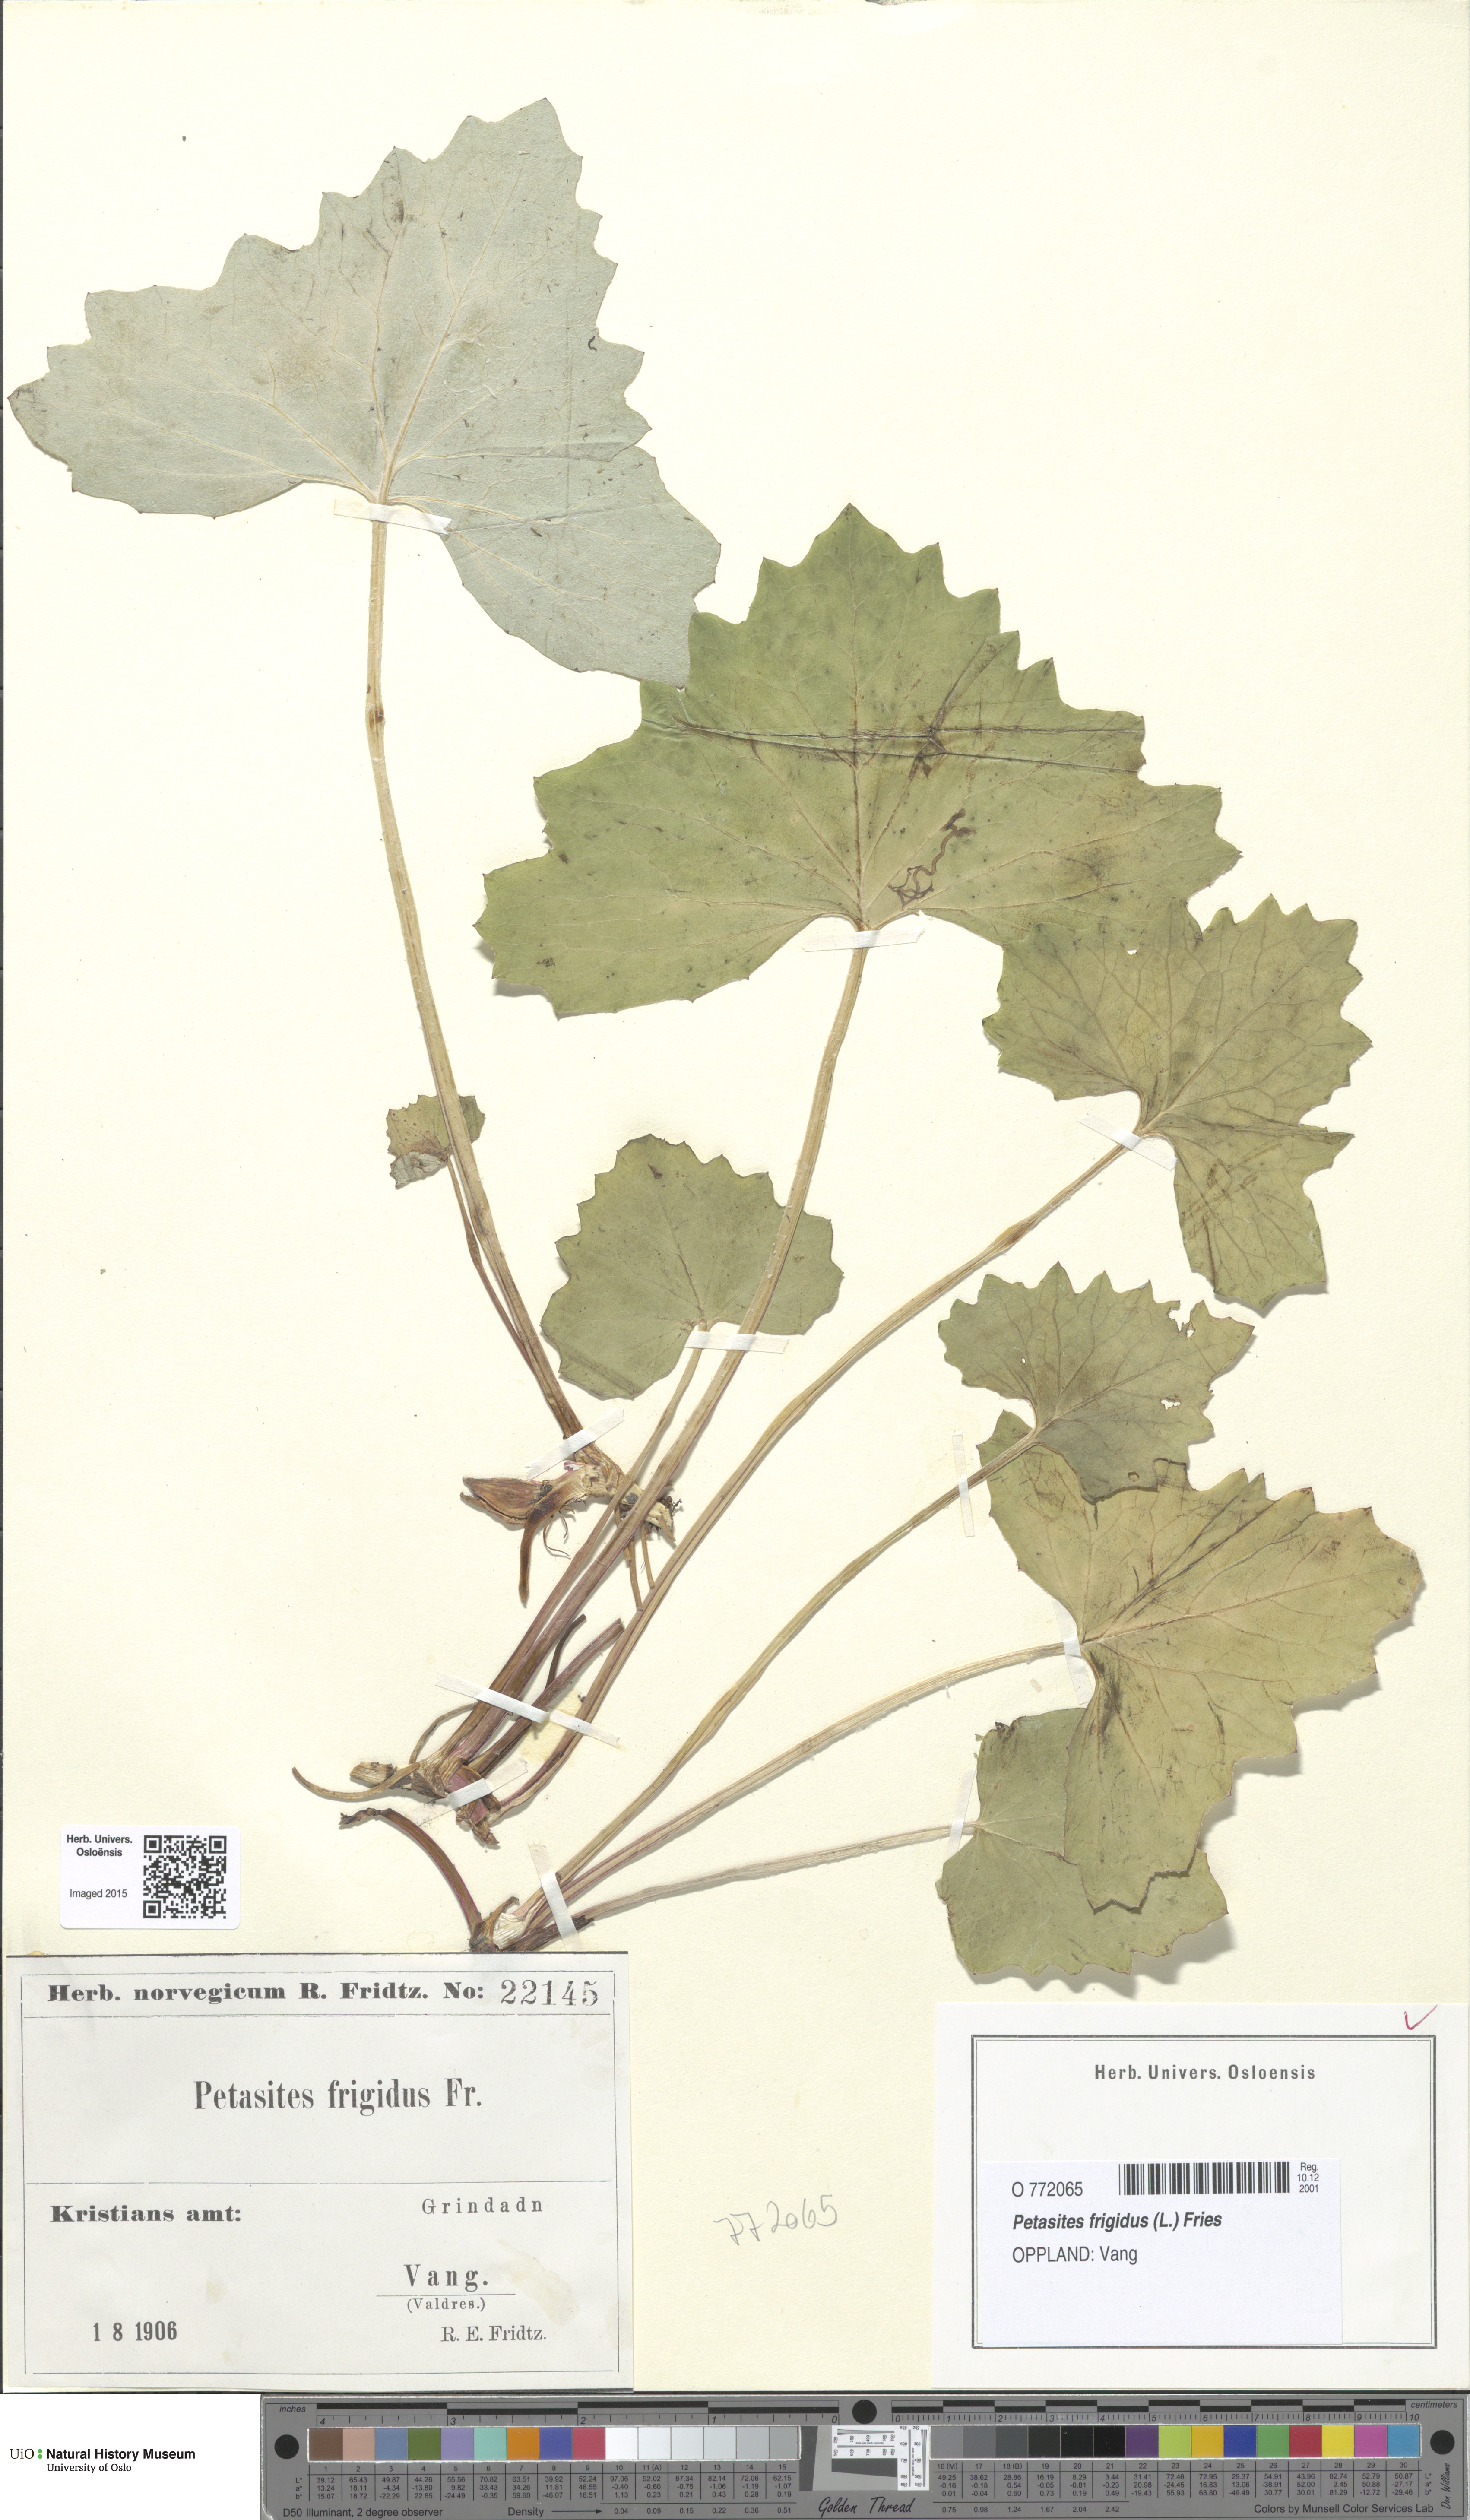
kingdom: Plantae
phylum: Tracheophyta
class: Magnoliopsida
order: Asterales
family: Asteraceae
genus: Petasites
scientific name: Petasites frigidus
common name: Arctic butterbur
